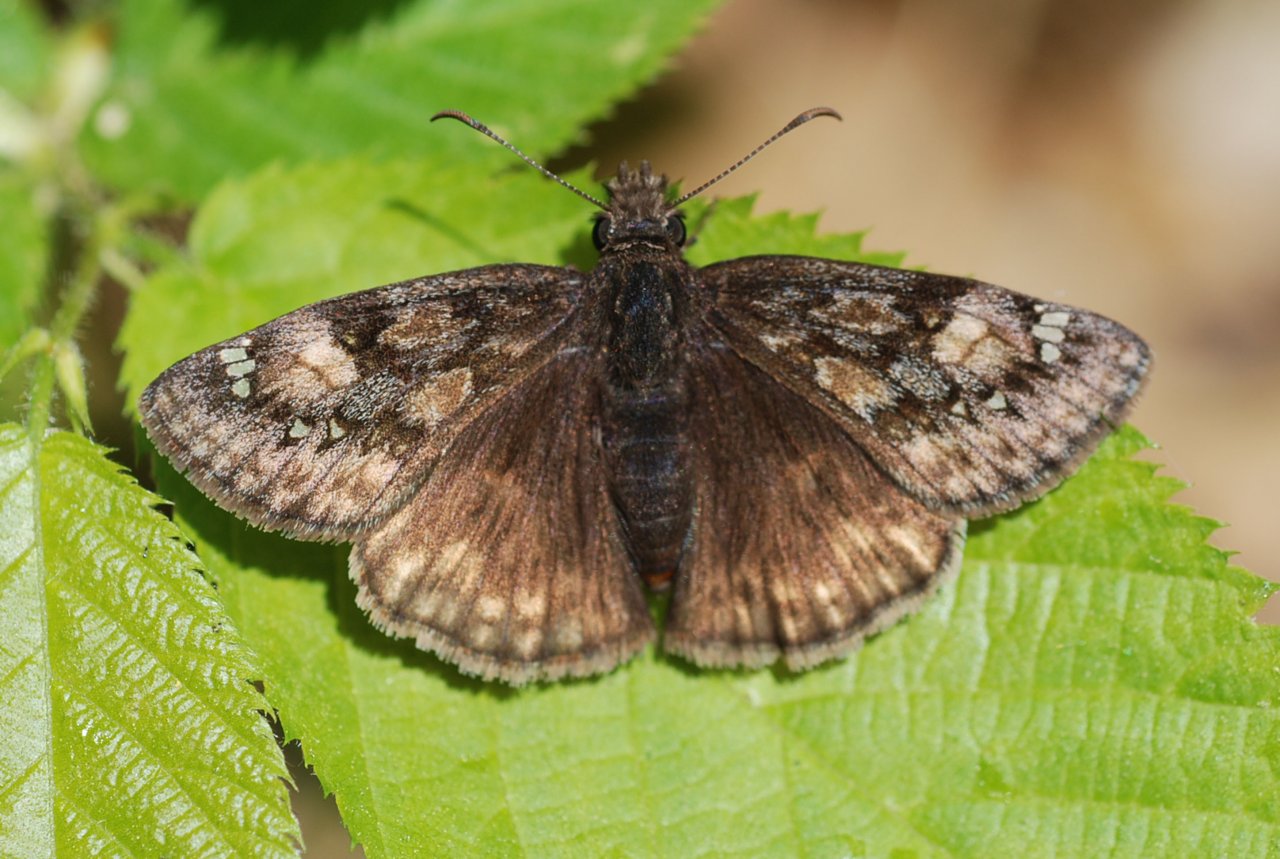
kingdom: Animalia
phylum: Arthropoda
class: Insecta
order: Lepidoptera
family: Hesperiidae
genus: Gesta
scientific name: Gesta
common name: Juvenal's Duskywing
